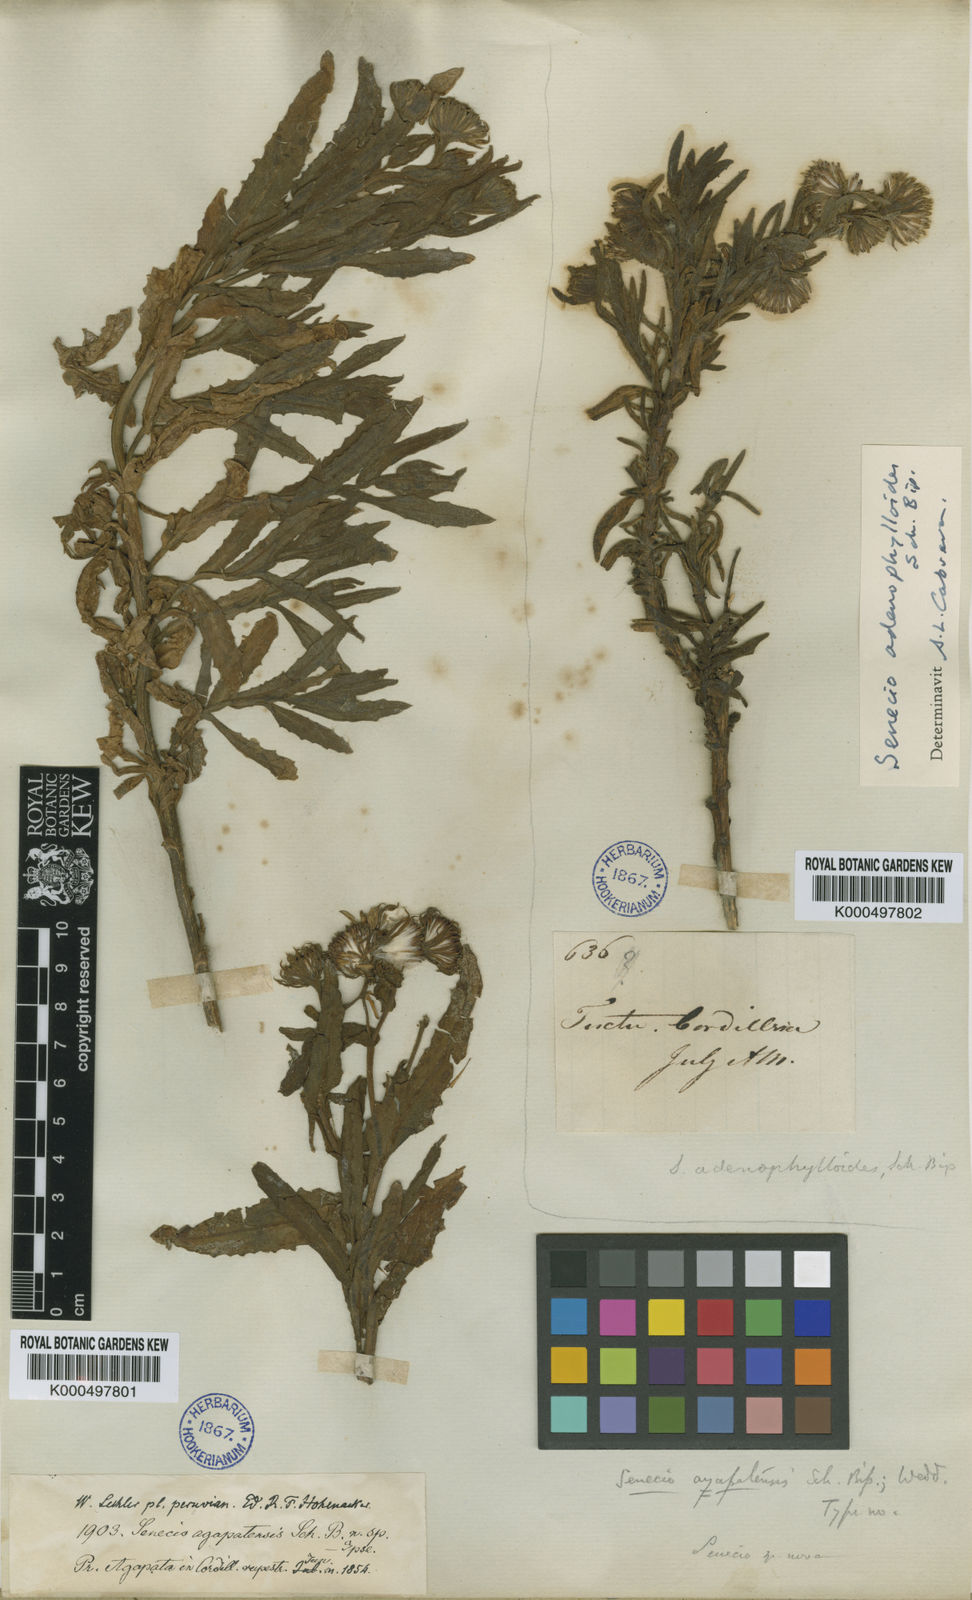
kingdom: Plantae
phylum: Tracheophyta
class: Magnoliopsida
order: Asterales
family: Asteraceae
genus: Senecio
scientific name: Senecio
